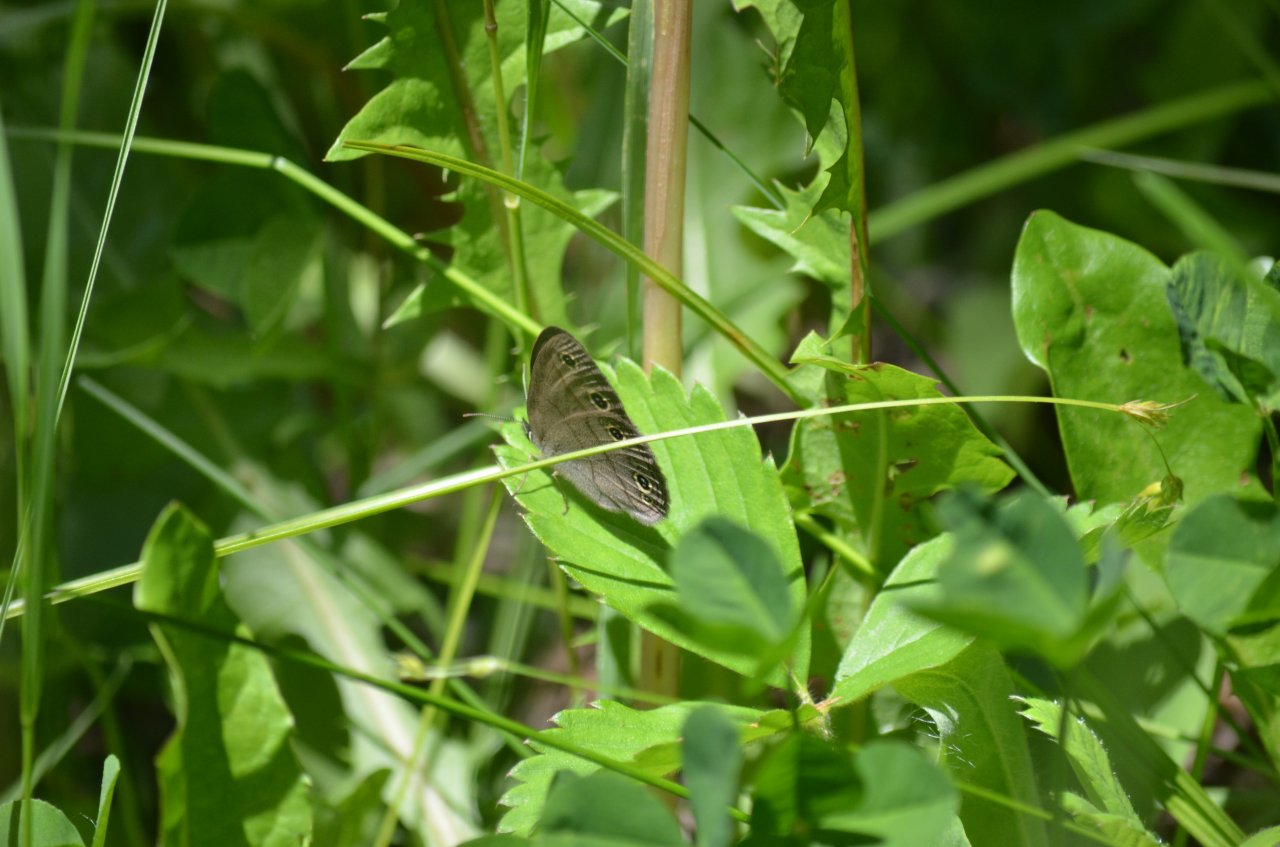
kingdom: Animalia
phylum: Arthropoda
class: Insecta
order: Lepidoptera
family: Nymphalidae
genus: Euptychia
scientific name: Euptychia cymela
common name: Little Wood Satyr
